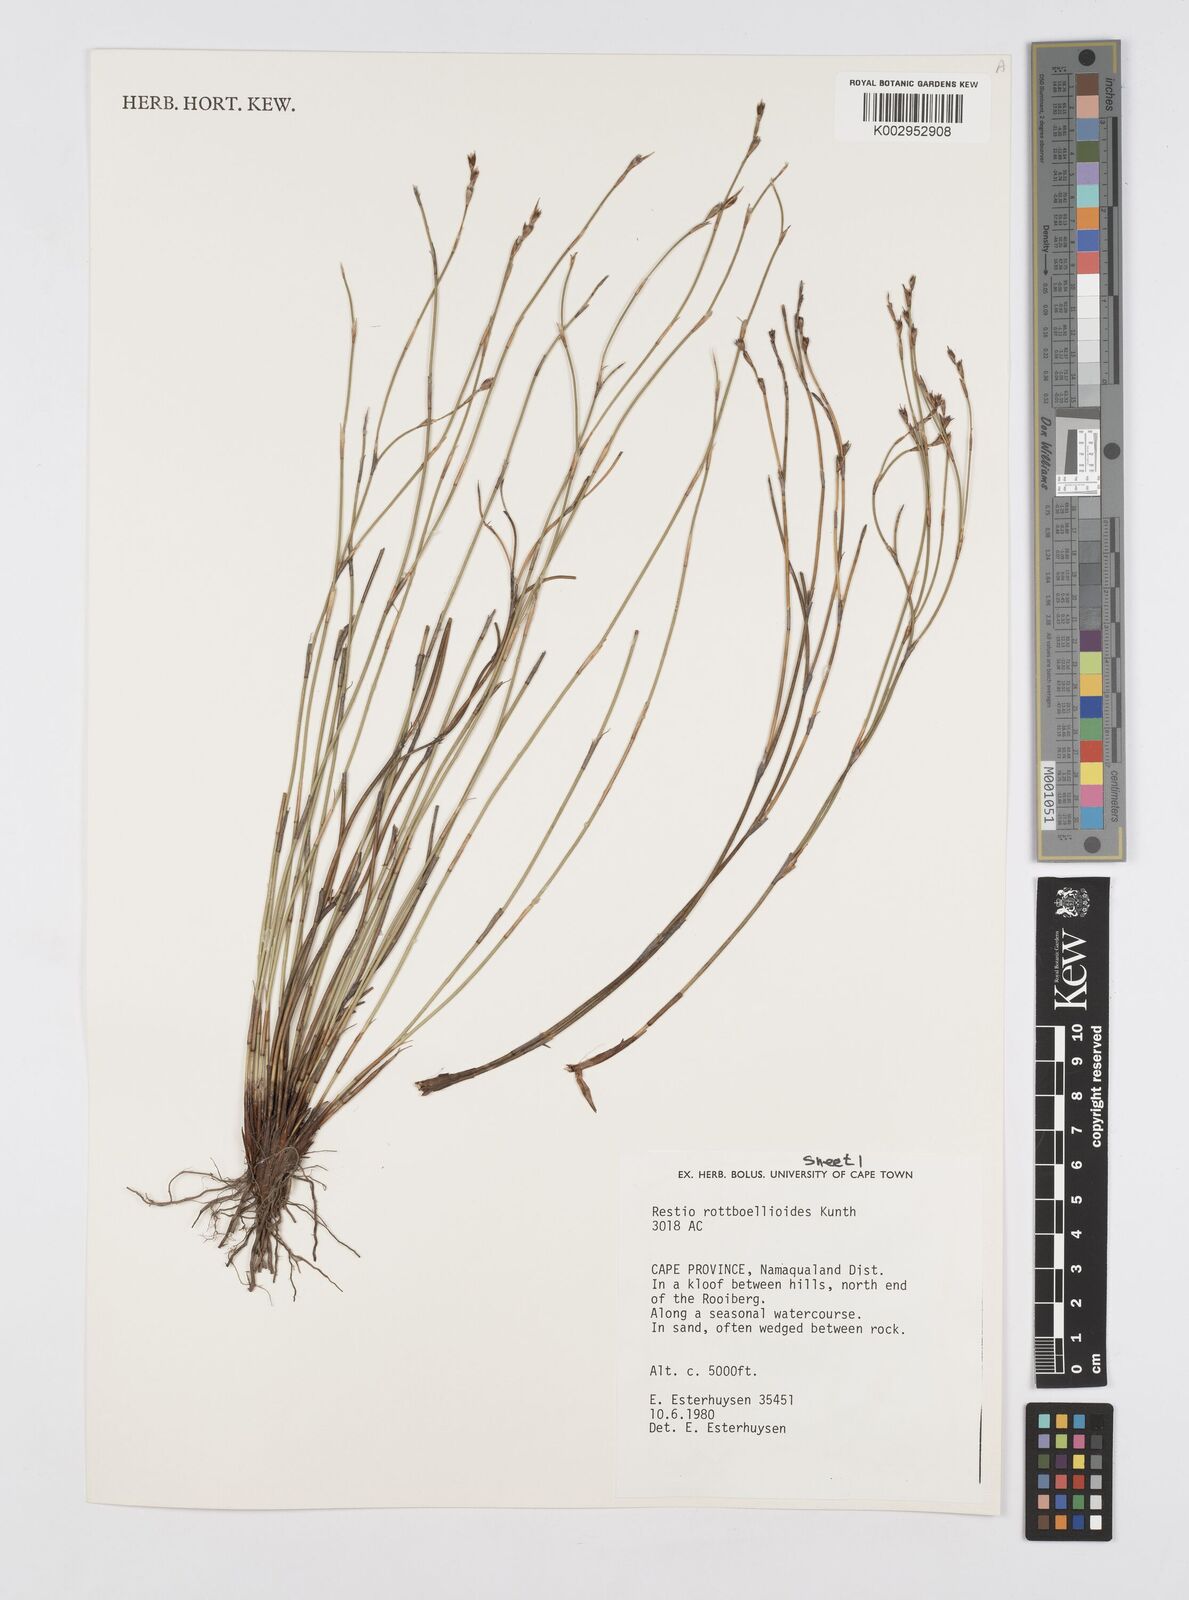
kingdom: Plantae
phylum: Tracheophyta
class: Liliopsida
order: Poales
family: Restionaceae
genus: Restio
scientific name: Restio rottboellioides
